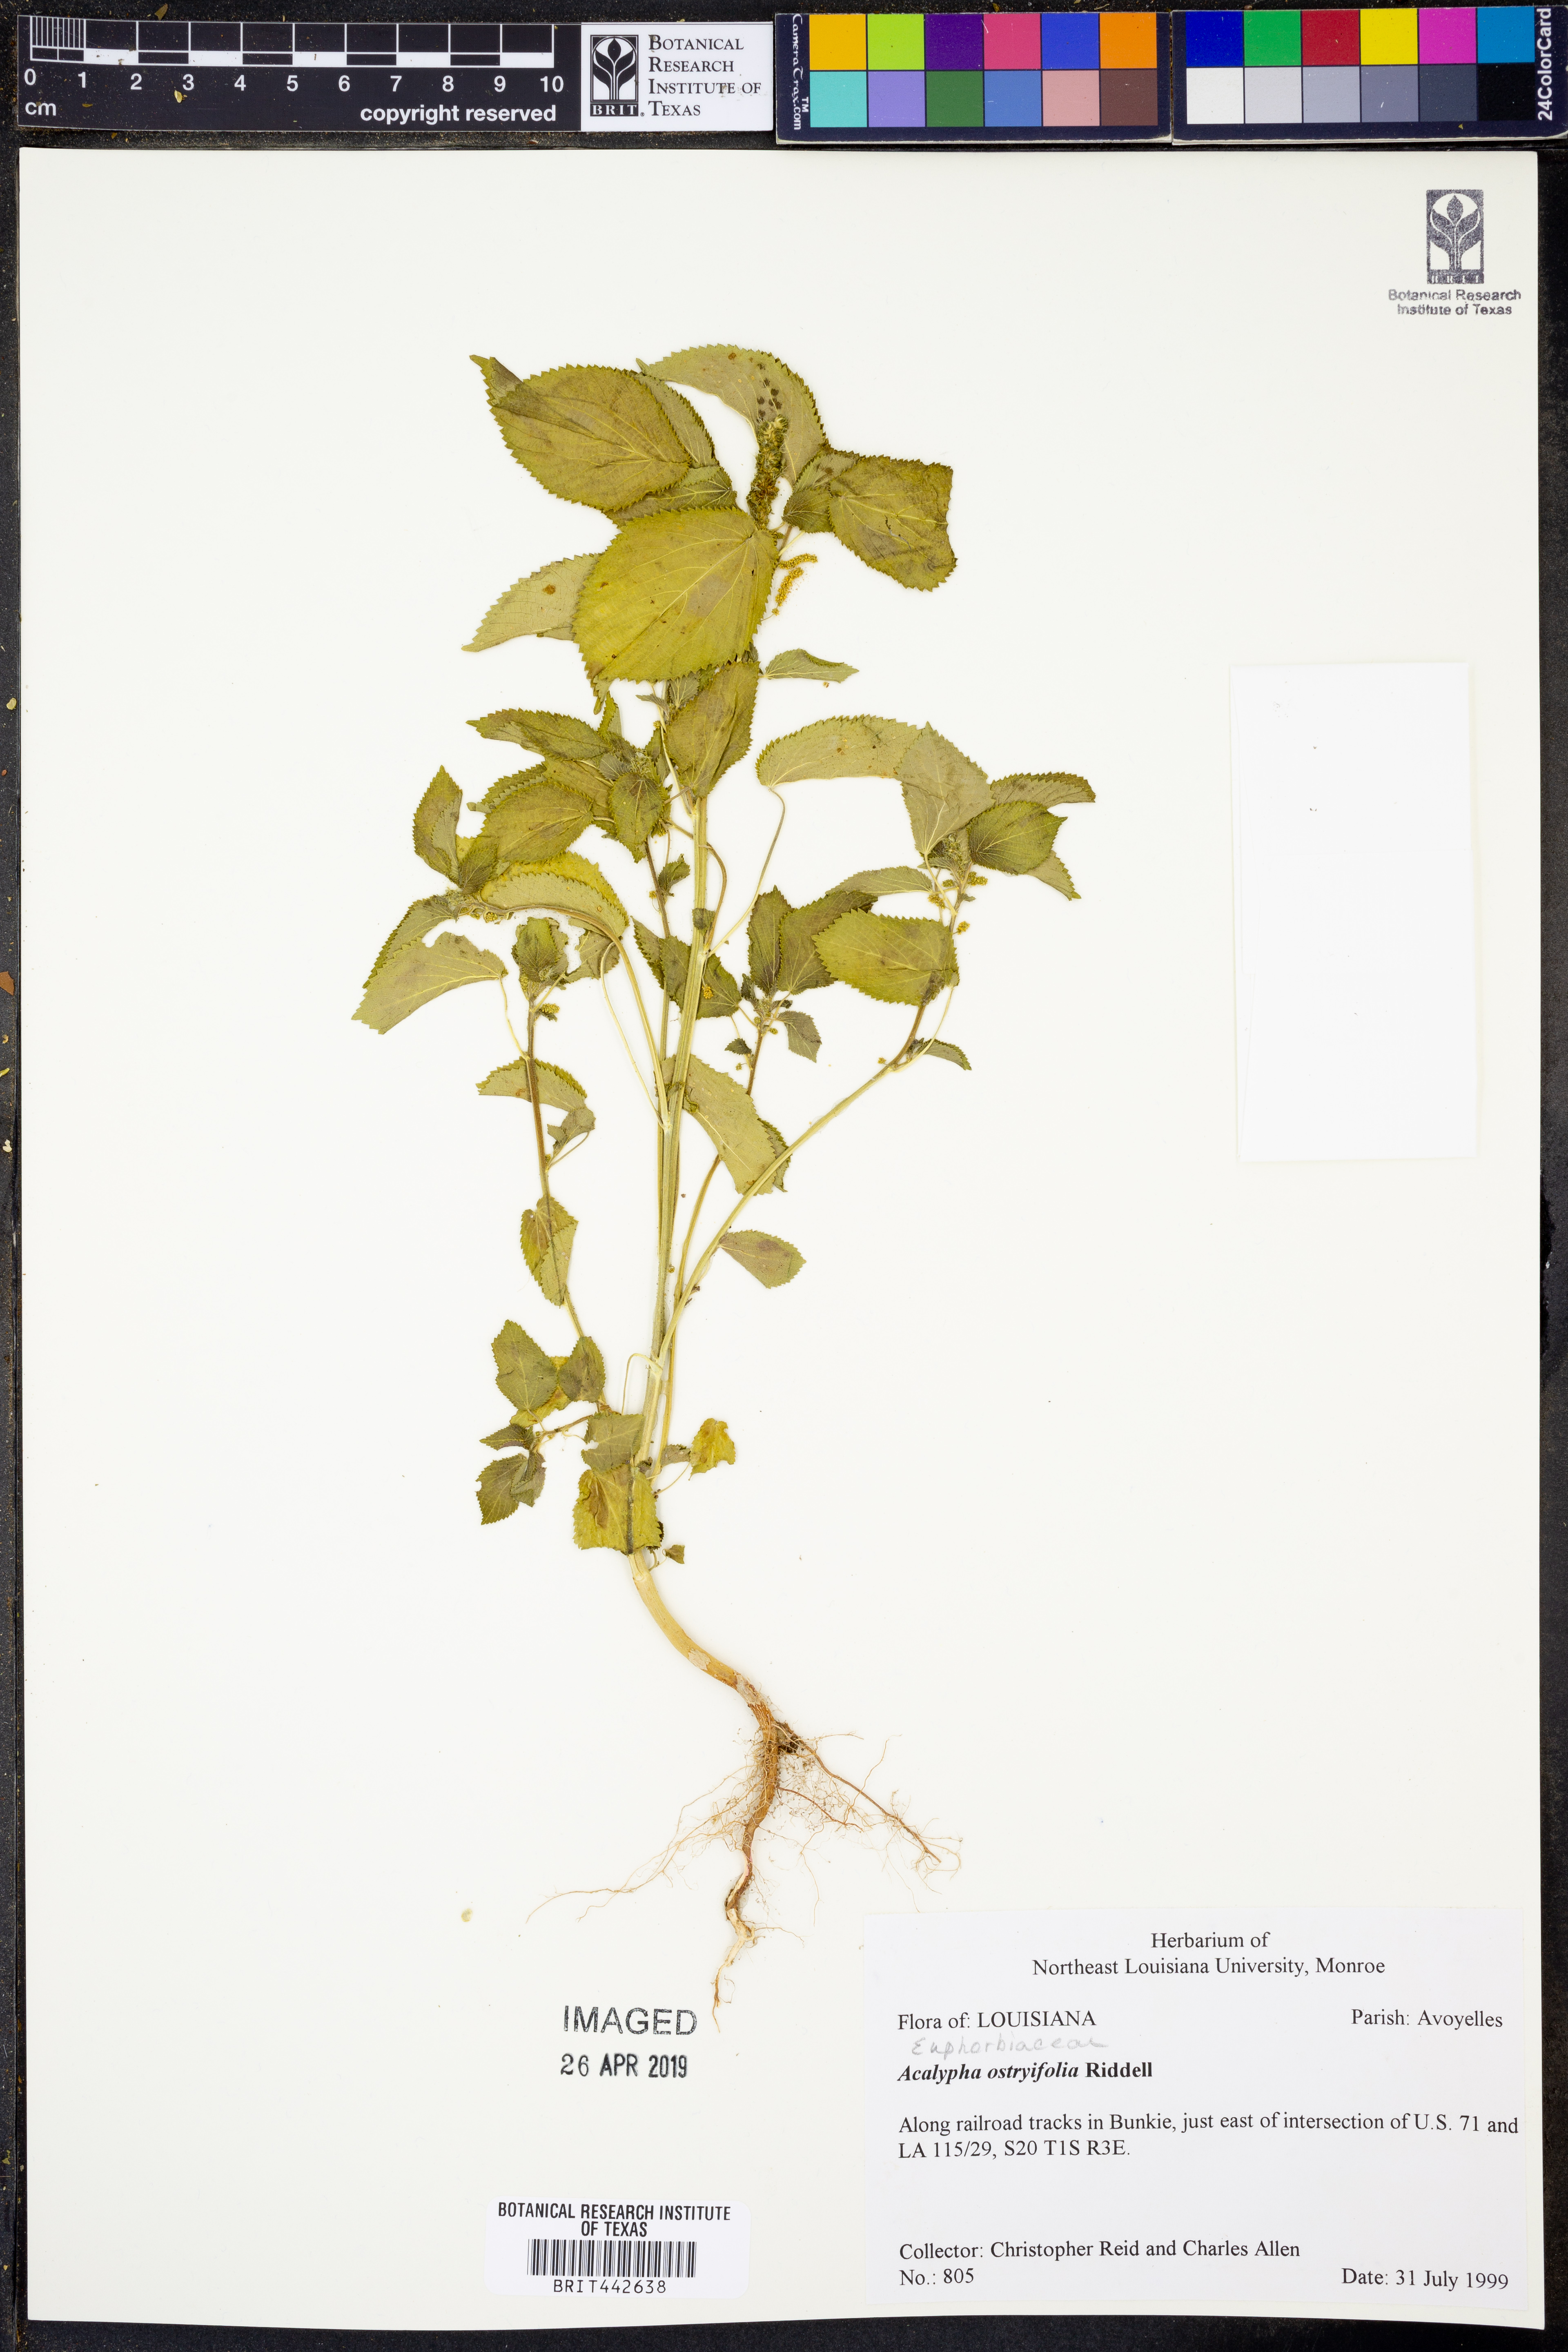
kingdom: Plantae
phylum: Tracheophyta
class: Magnoliopsida
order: Malpighiales
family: Euphorbiaceae
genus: Acalypha
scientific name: Acalypha persimilis
